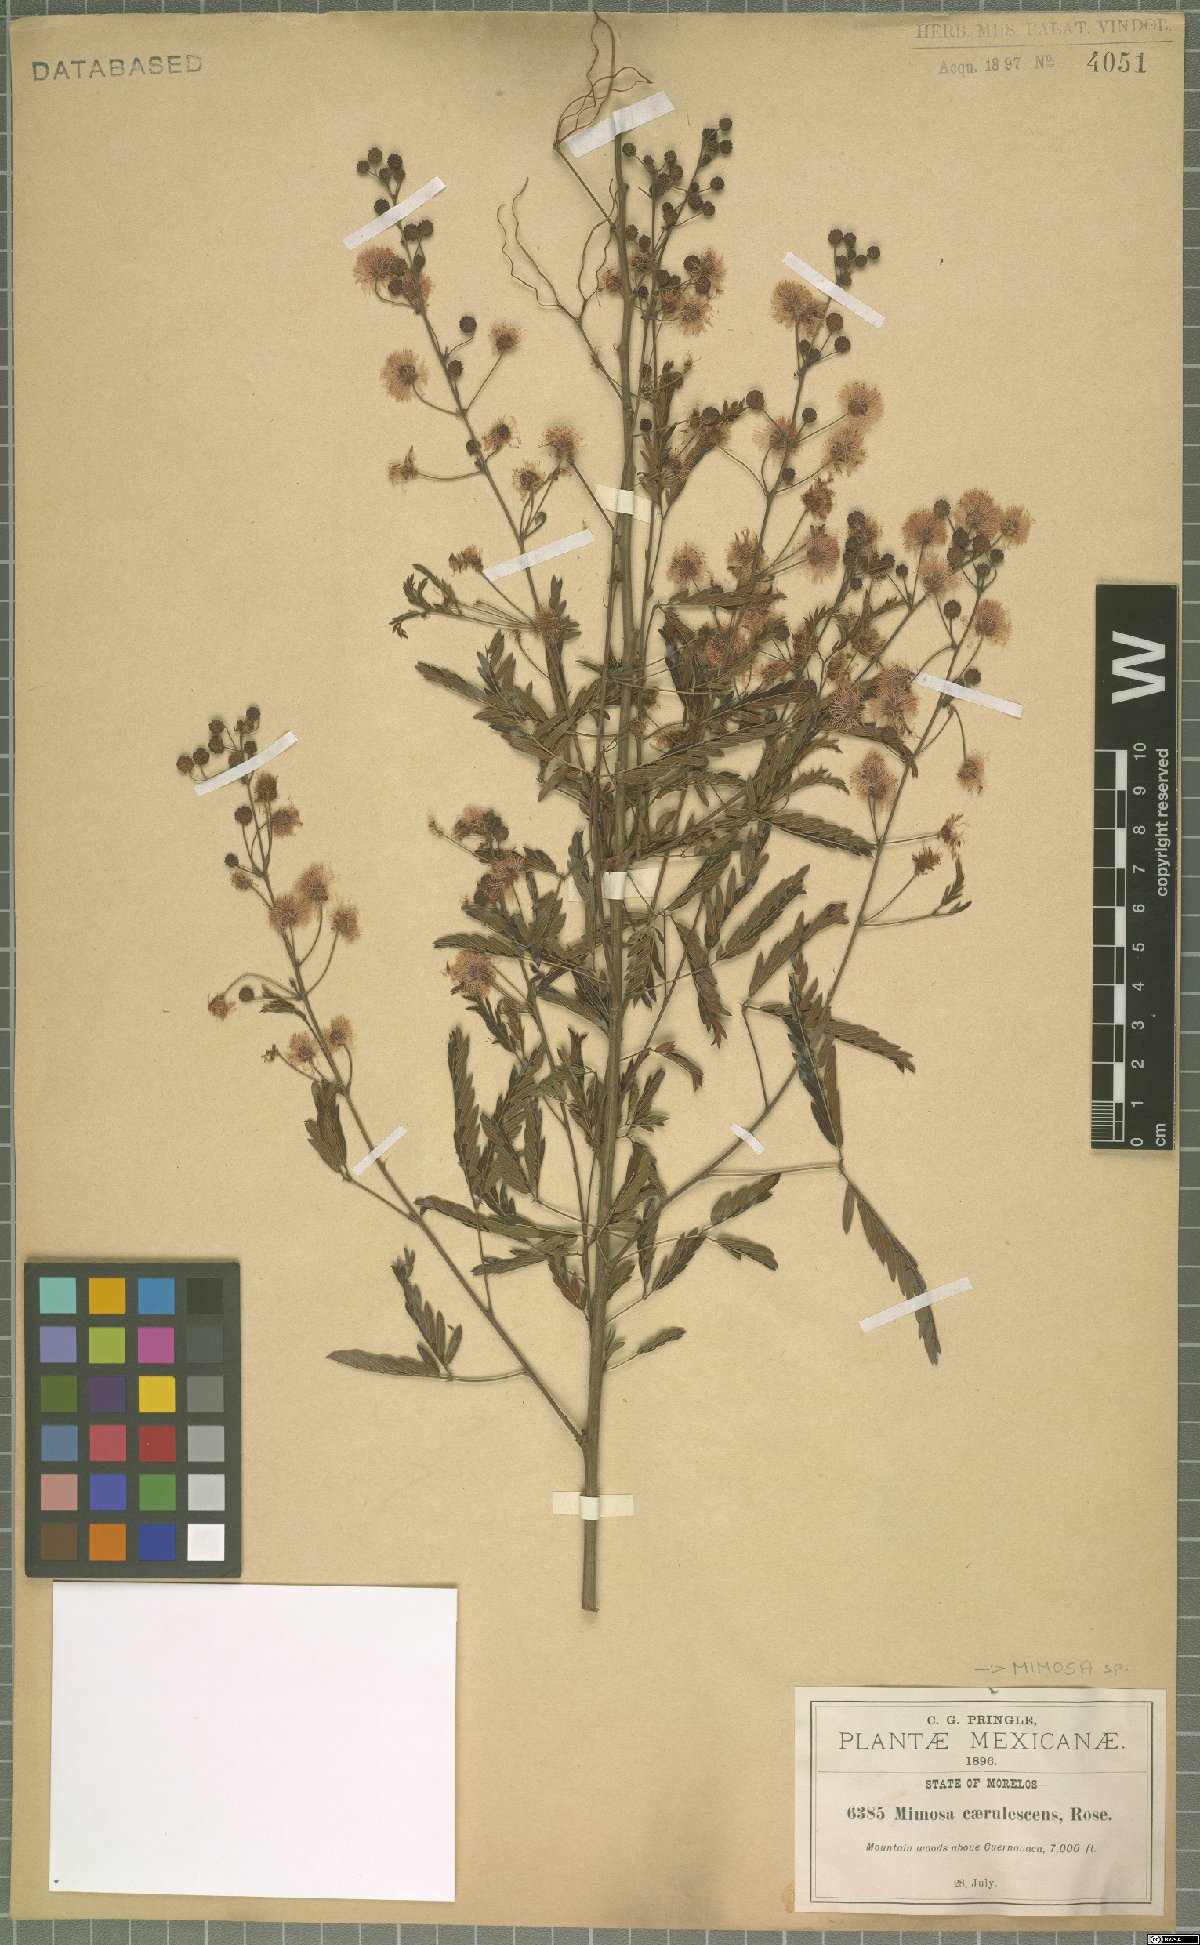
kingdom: Plantae
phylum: Tracheophyta
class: Magnoliopsida
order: Fabales
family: Fabaceae
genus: Mimosa
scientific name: Mimosa caerulea
